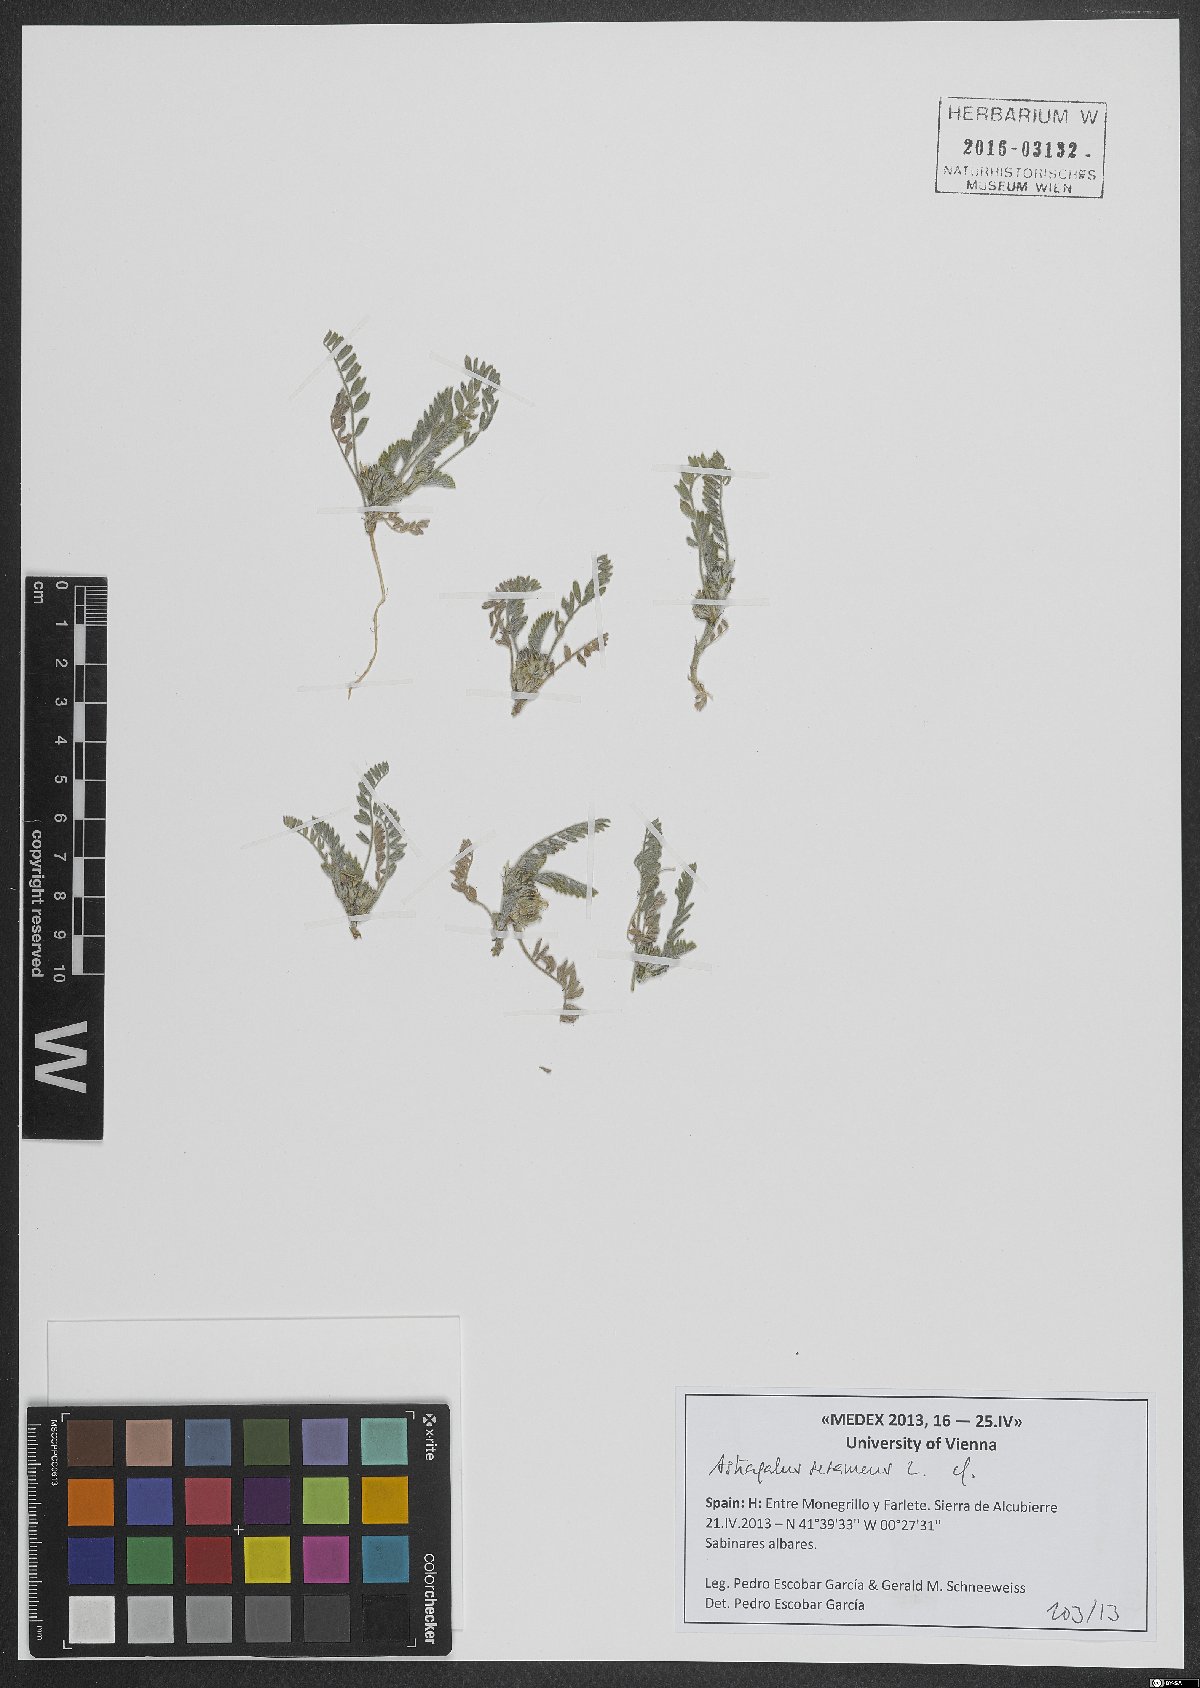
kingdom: Plantae
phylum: Tracheophyta
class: Magnoliopsida
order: Fabales
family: Fabaceae
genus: Astragalus
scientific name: Astragalus sesameus
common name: Purple milk-vetch
